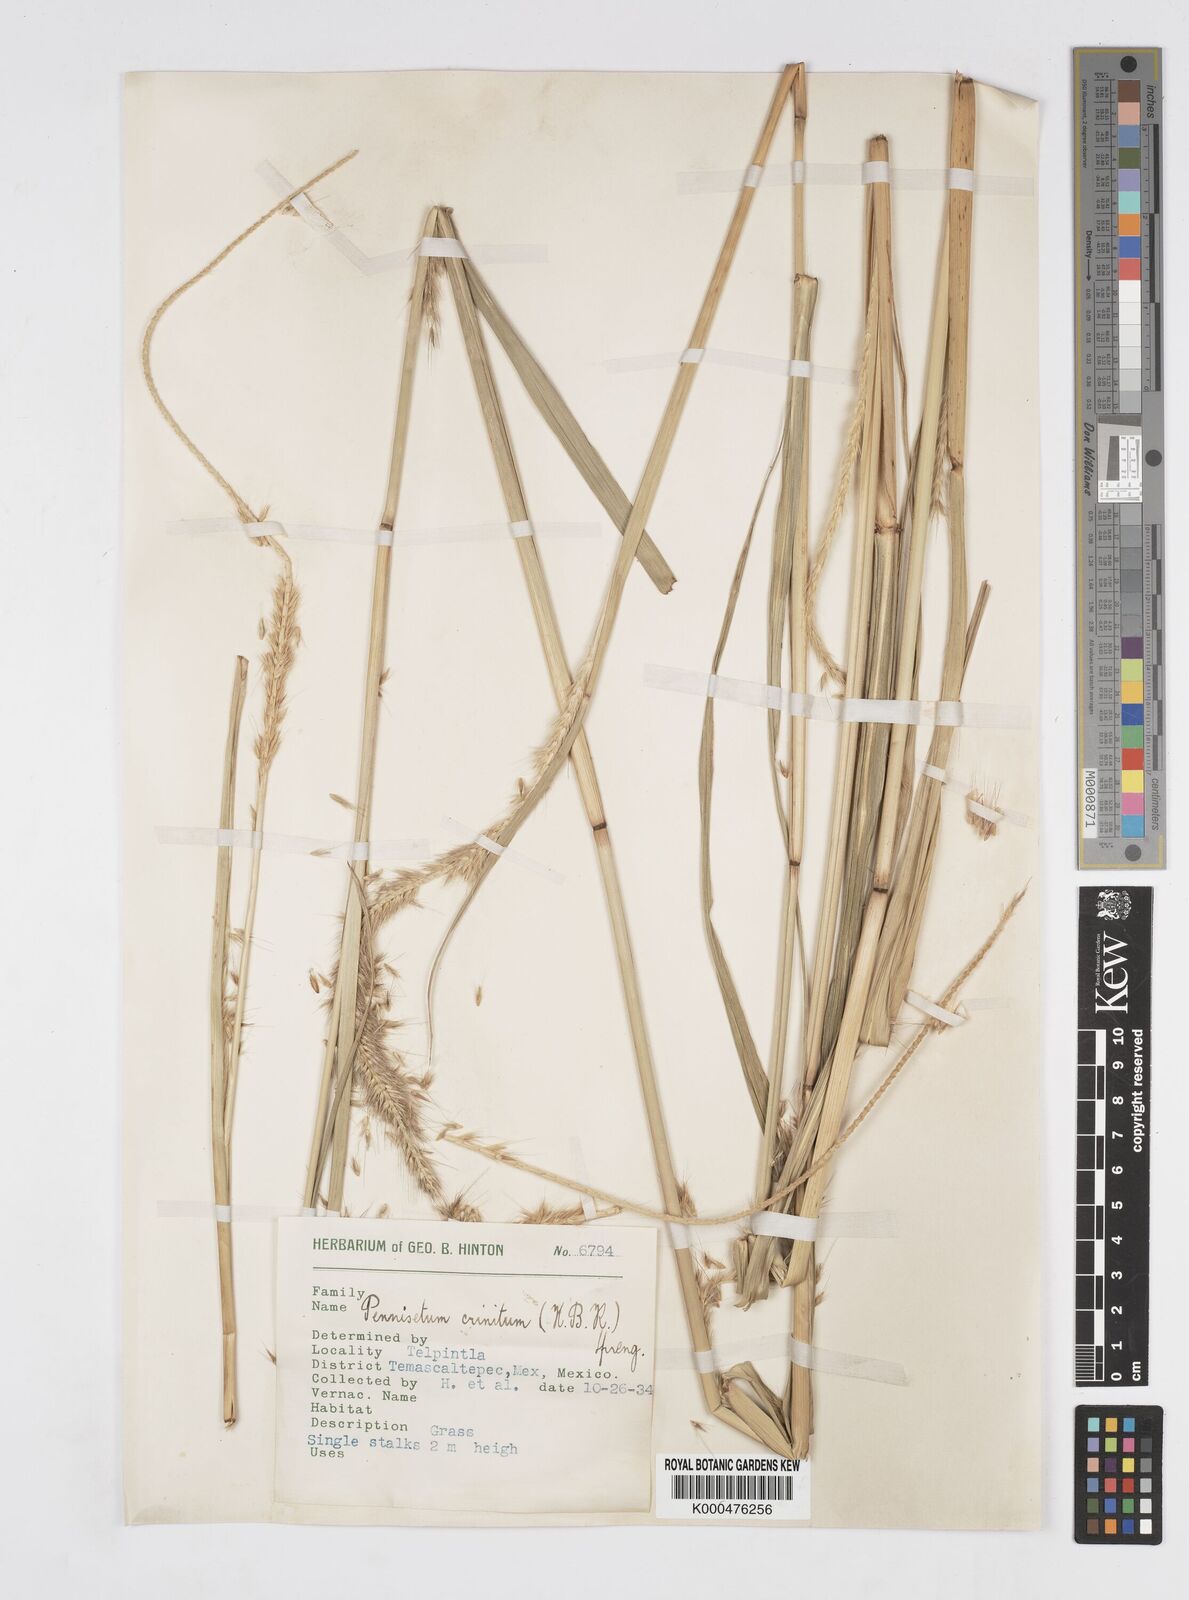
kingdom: Plantae
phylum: Tracheophyta
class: Liliopsida
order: Poales
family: Poaceae
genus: Cenchrus
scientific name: Cenchrus michoacanus
